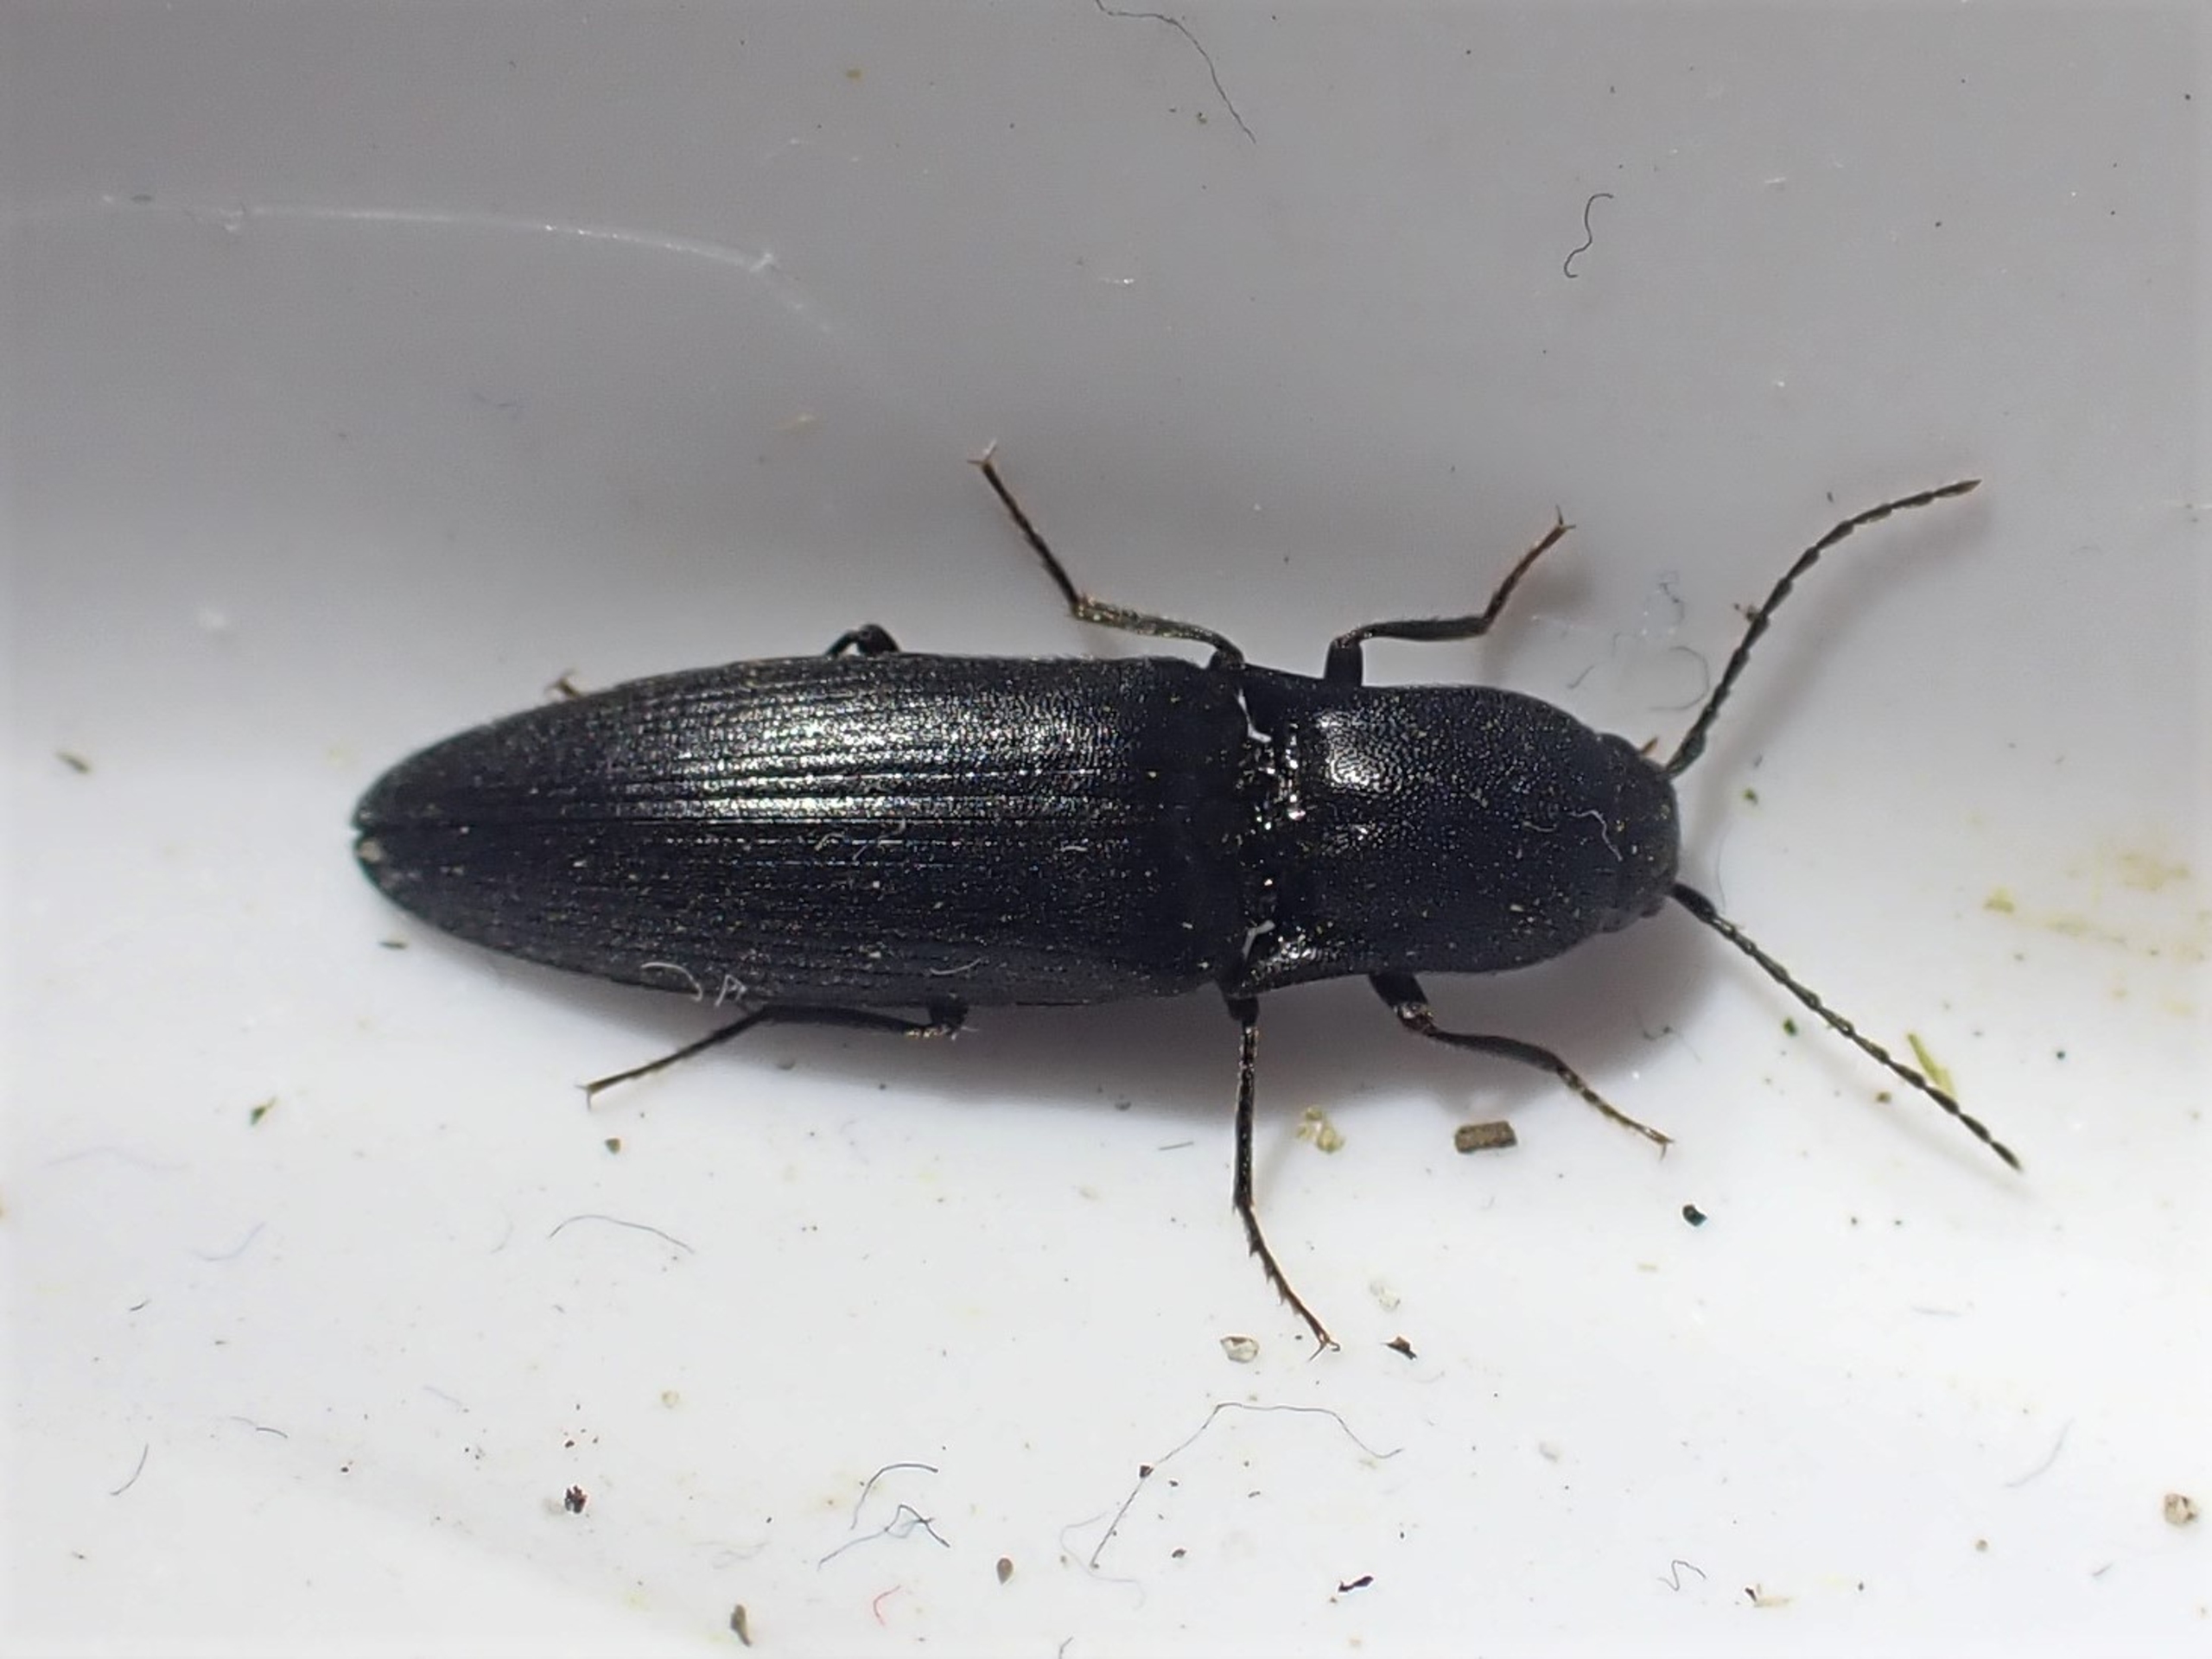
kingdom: Animalia
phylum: Arthropoda
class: Insecta
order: Coleoptera
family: Elateridae
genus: Ectinus
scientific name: Ectinus aterrimus
